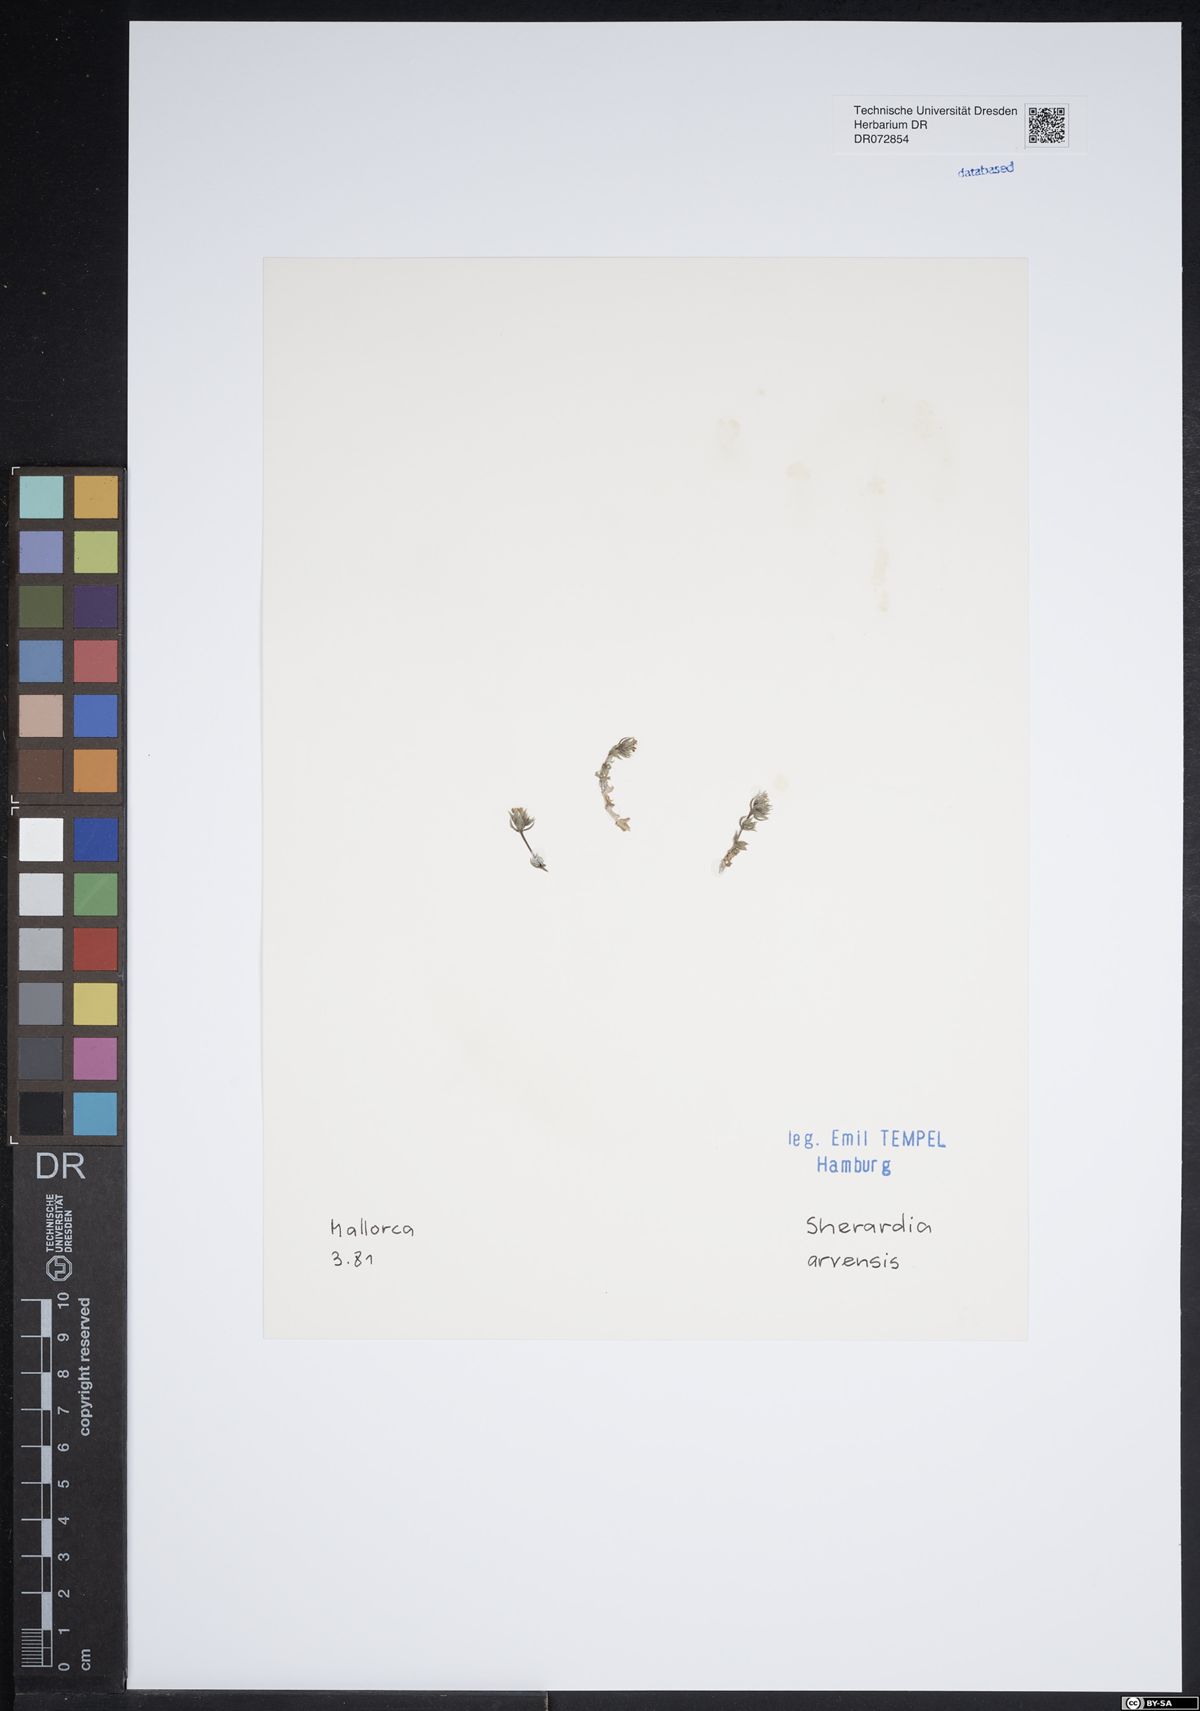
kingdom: Plantae
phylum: Tracheophyta
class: Magnoliopsida
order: Gentianales
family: Rubiaceae
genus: Sherardia
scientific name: Sherardia arvensis
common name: Field madder
